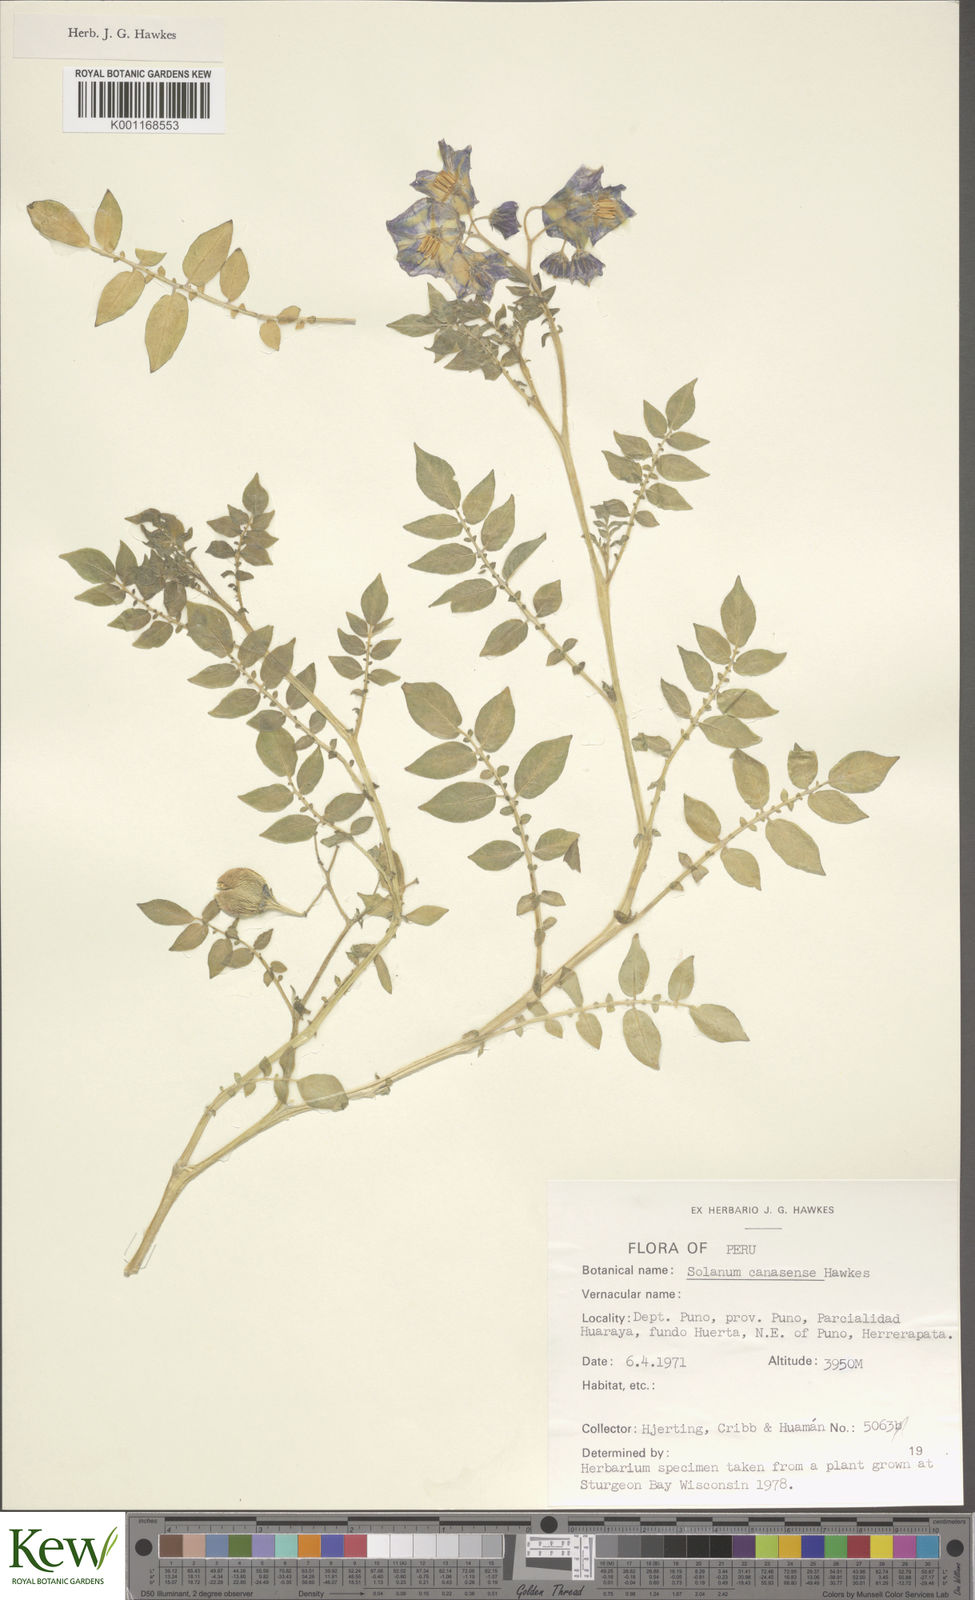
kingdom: Plantae
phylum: Tracheophyta
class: Magnoliopsida
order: Solanales
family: Solanaceae
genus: Solanum
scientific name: Solanum candolleanum
